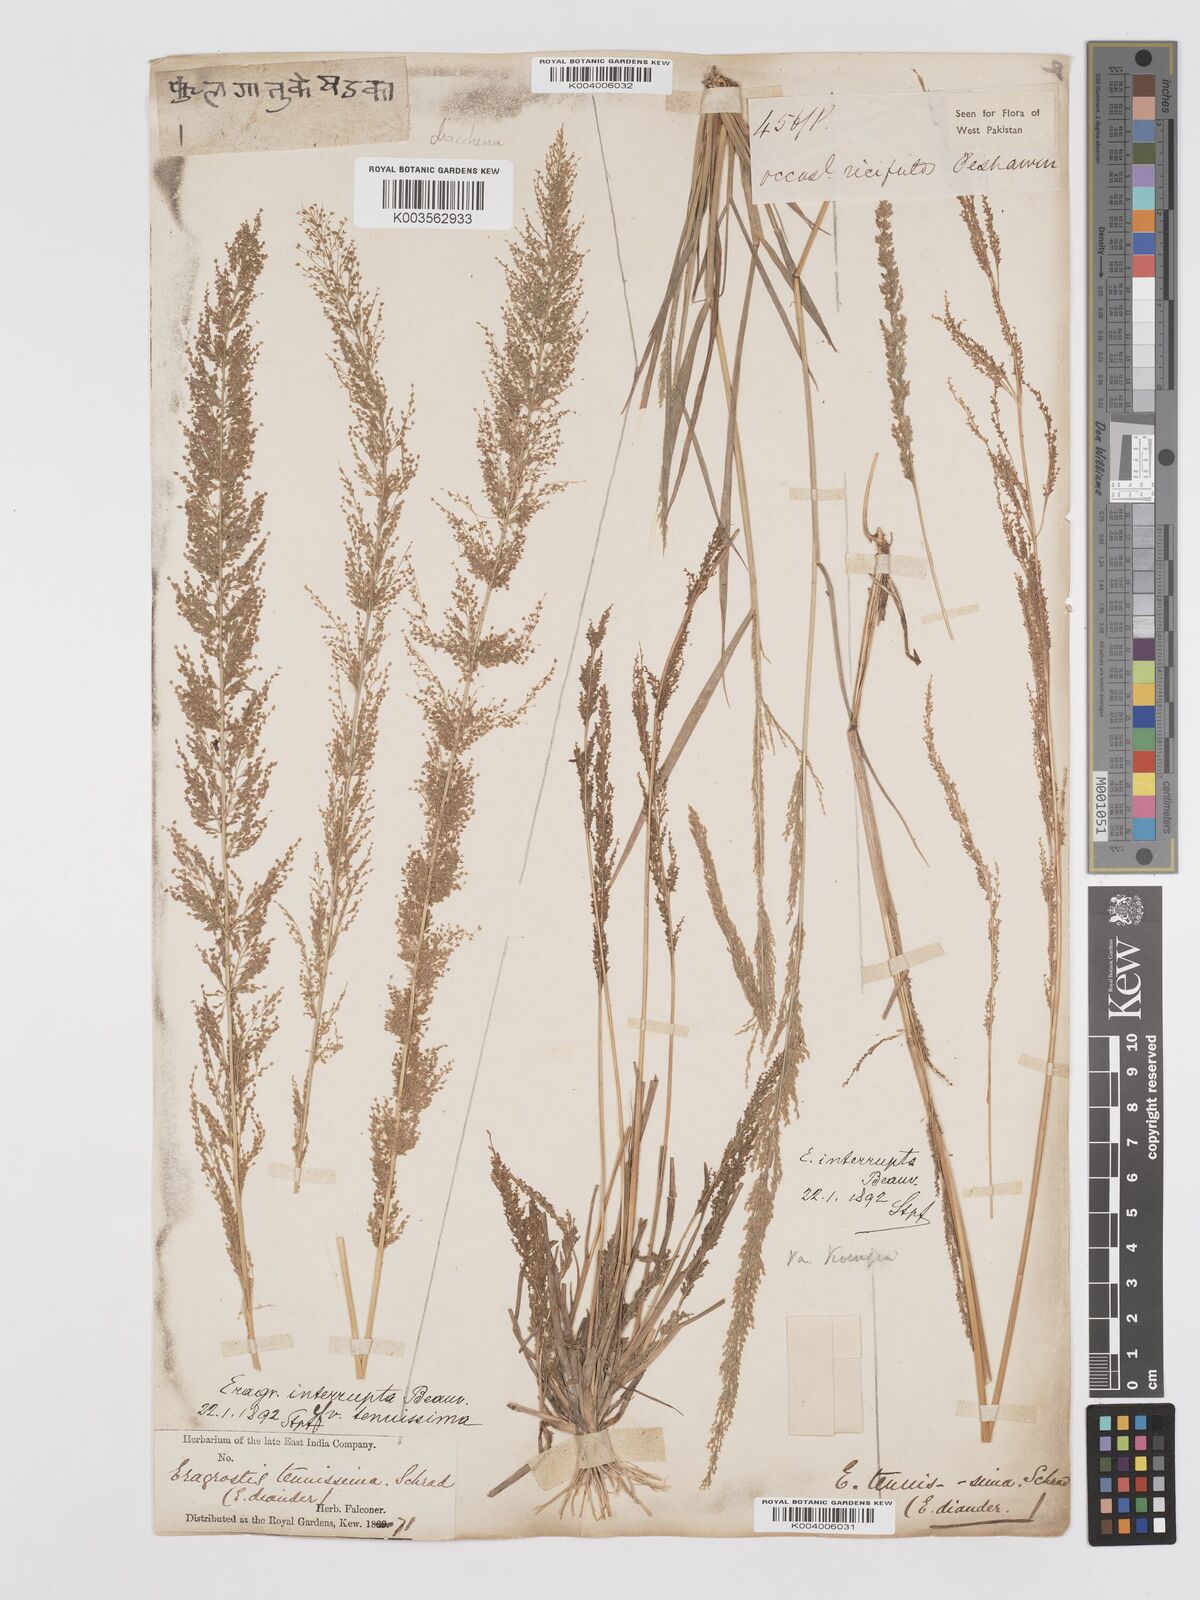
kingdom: Plantae
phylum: Tracheophyta
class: Liliopsida
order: Poales
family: Poaceae
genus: Eragrostis
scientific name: Eragrostis japonica
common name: Pond lovegrass
